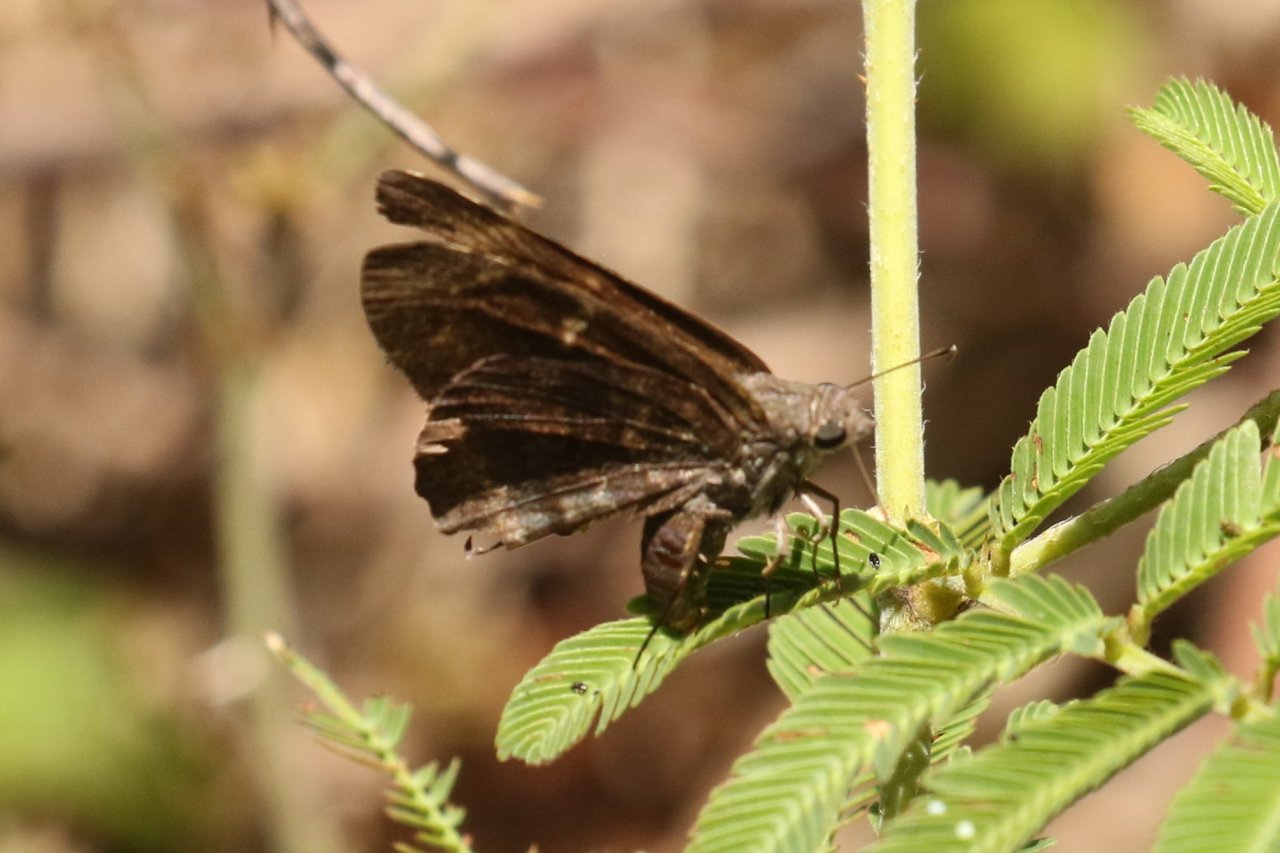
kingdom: Animalia
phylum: Arthropoda
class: Insecta
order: Lepidoptera
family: Hesperiidae
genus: Caicella
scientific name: Caicella calchas
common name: Mimosa Skipper
